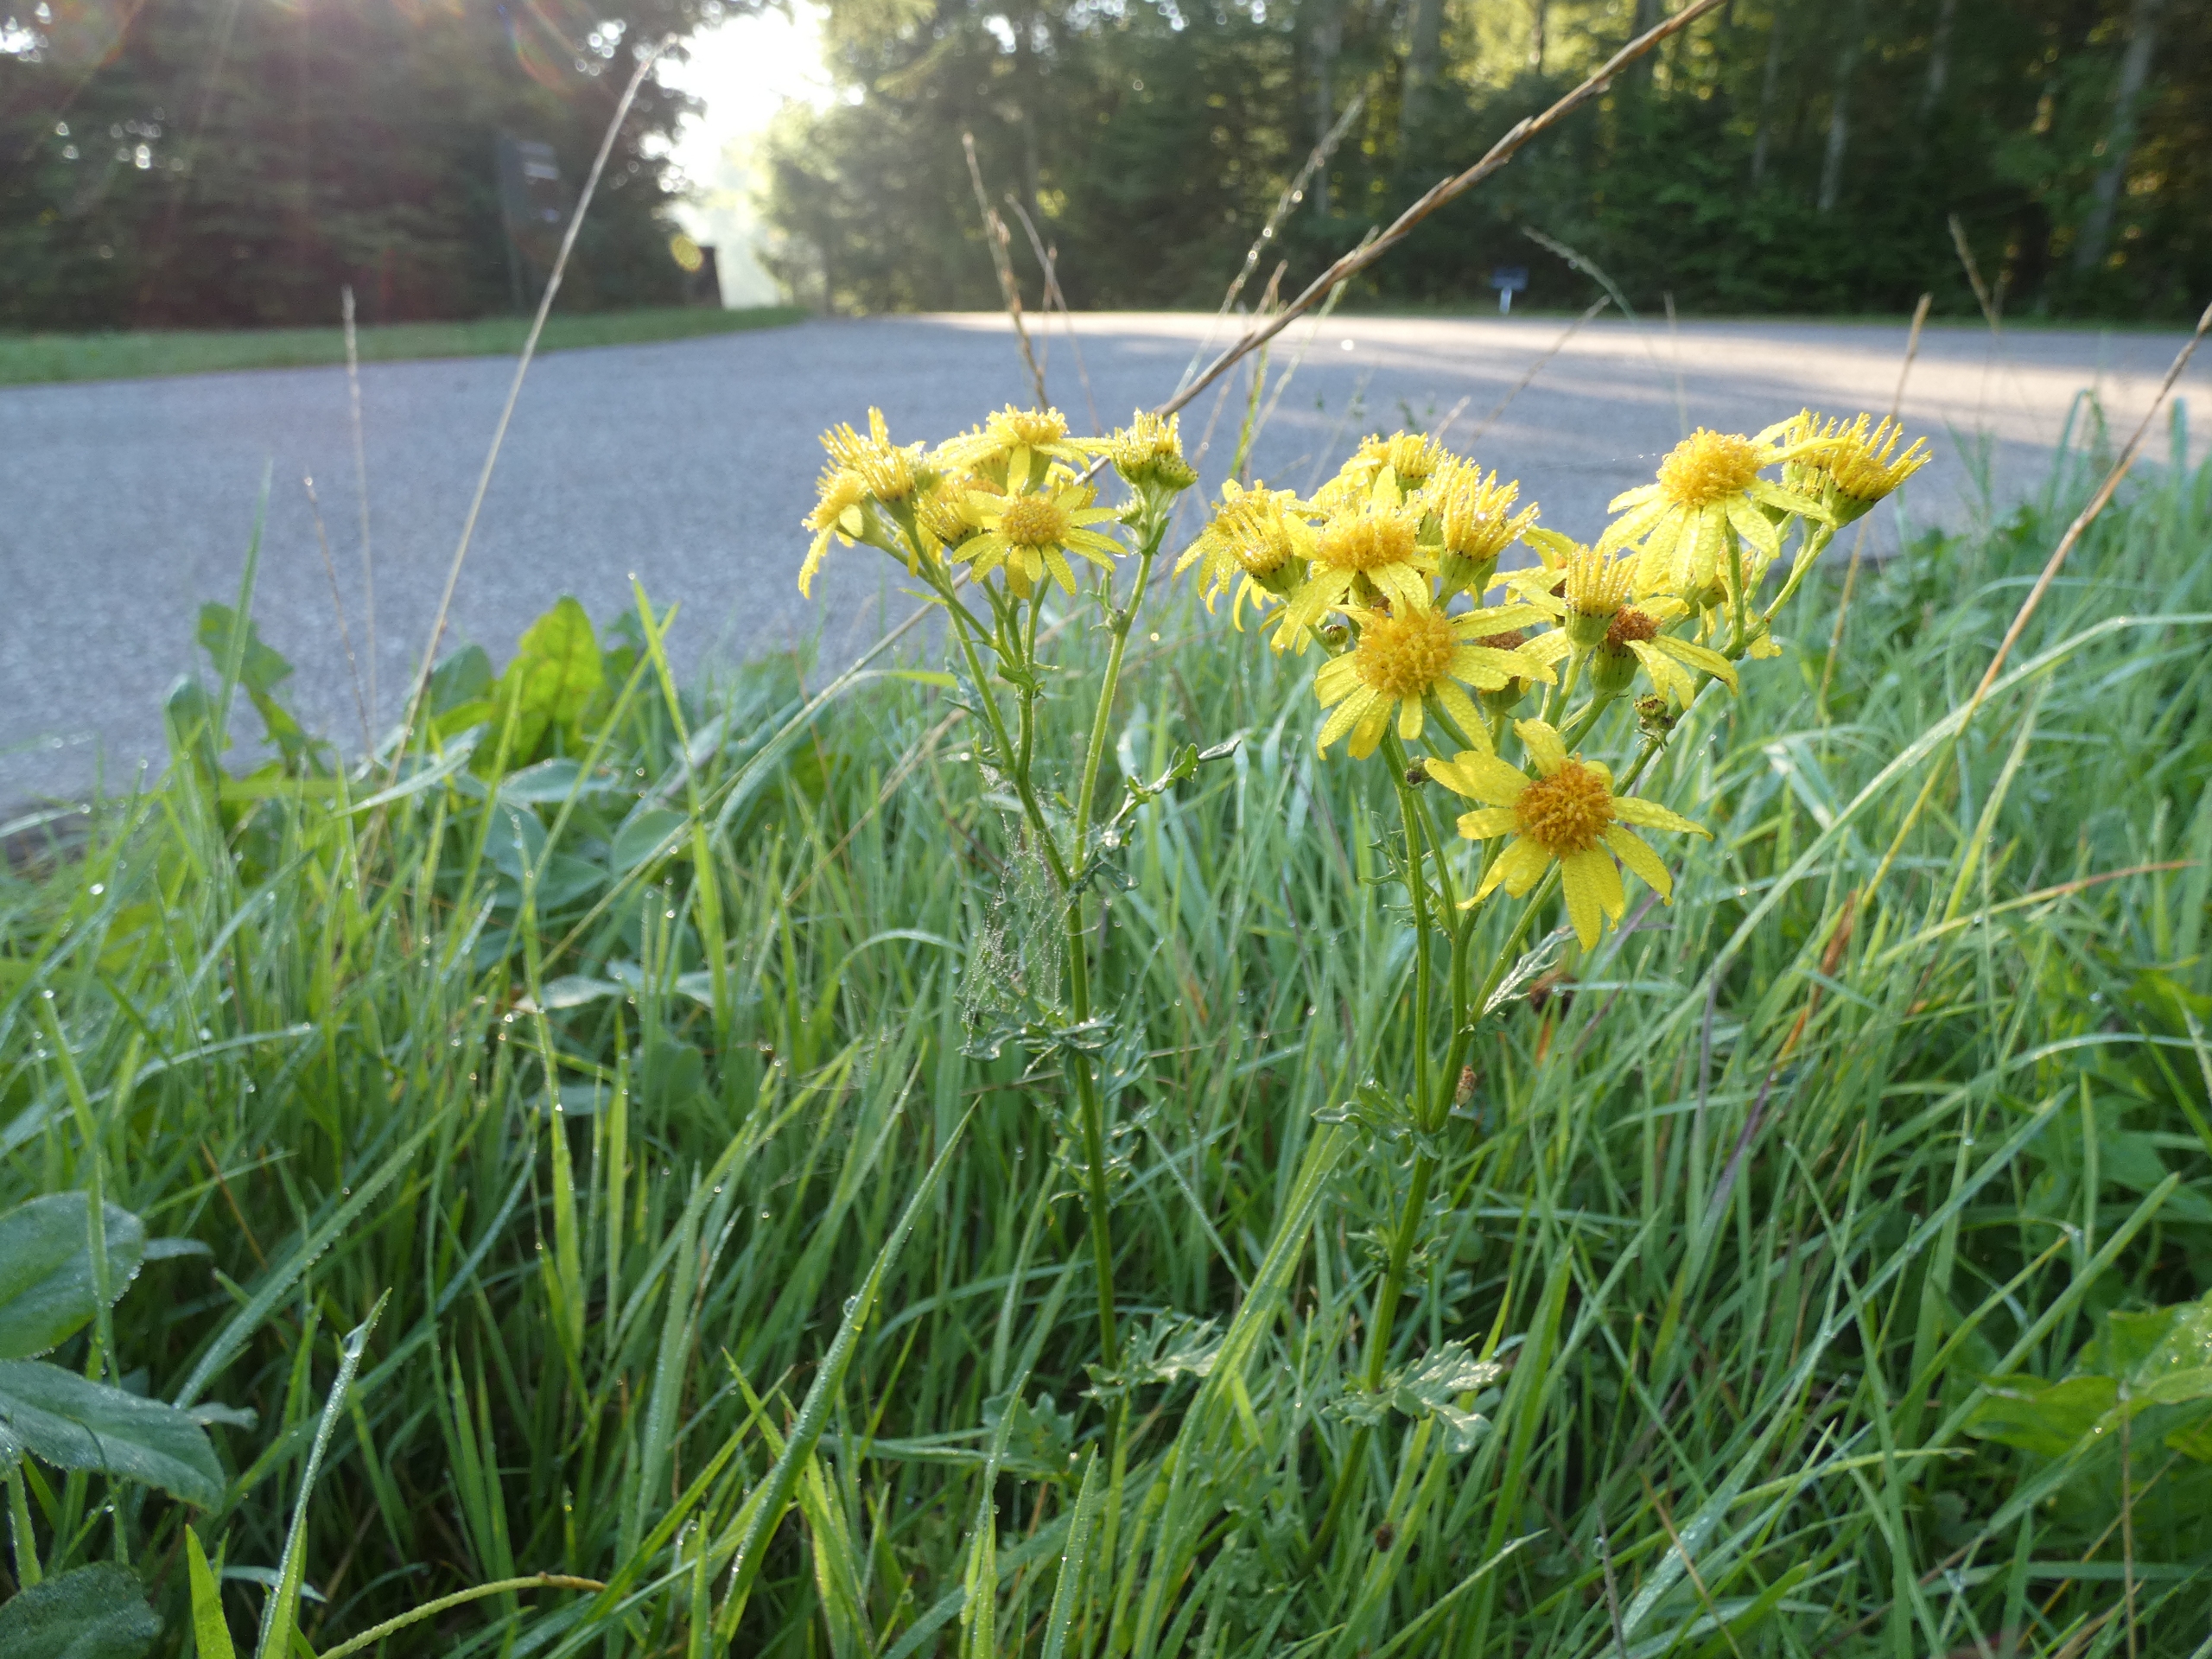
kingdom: Plantae
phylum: Tracheophyta
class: Magnoliopsida
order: Asterales
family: Asteraceae
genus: Jacobaea
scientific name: Jacobaea vulgaris
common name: Eng-brandbæger
